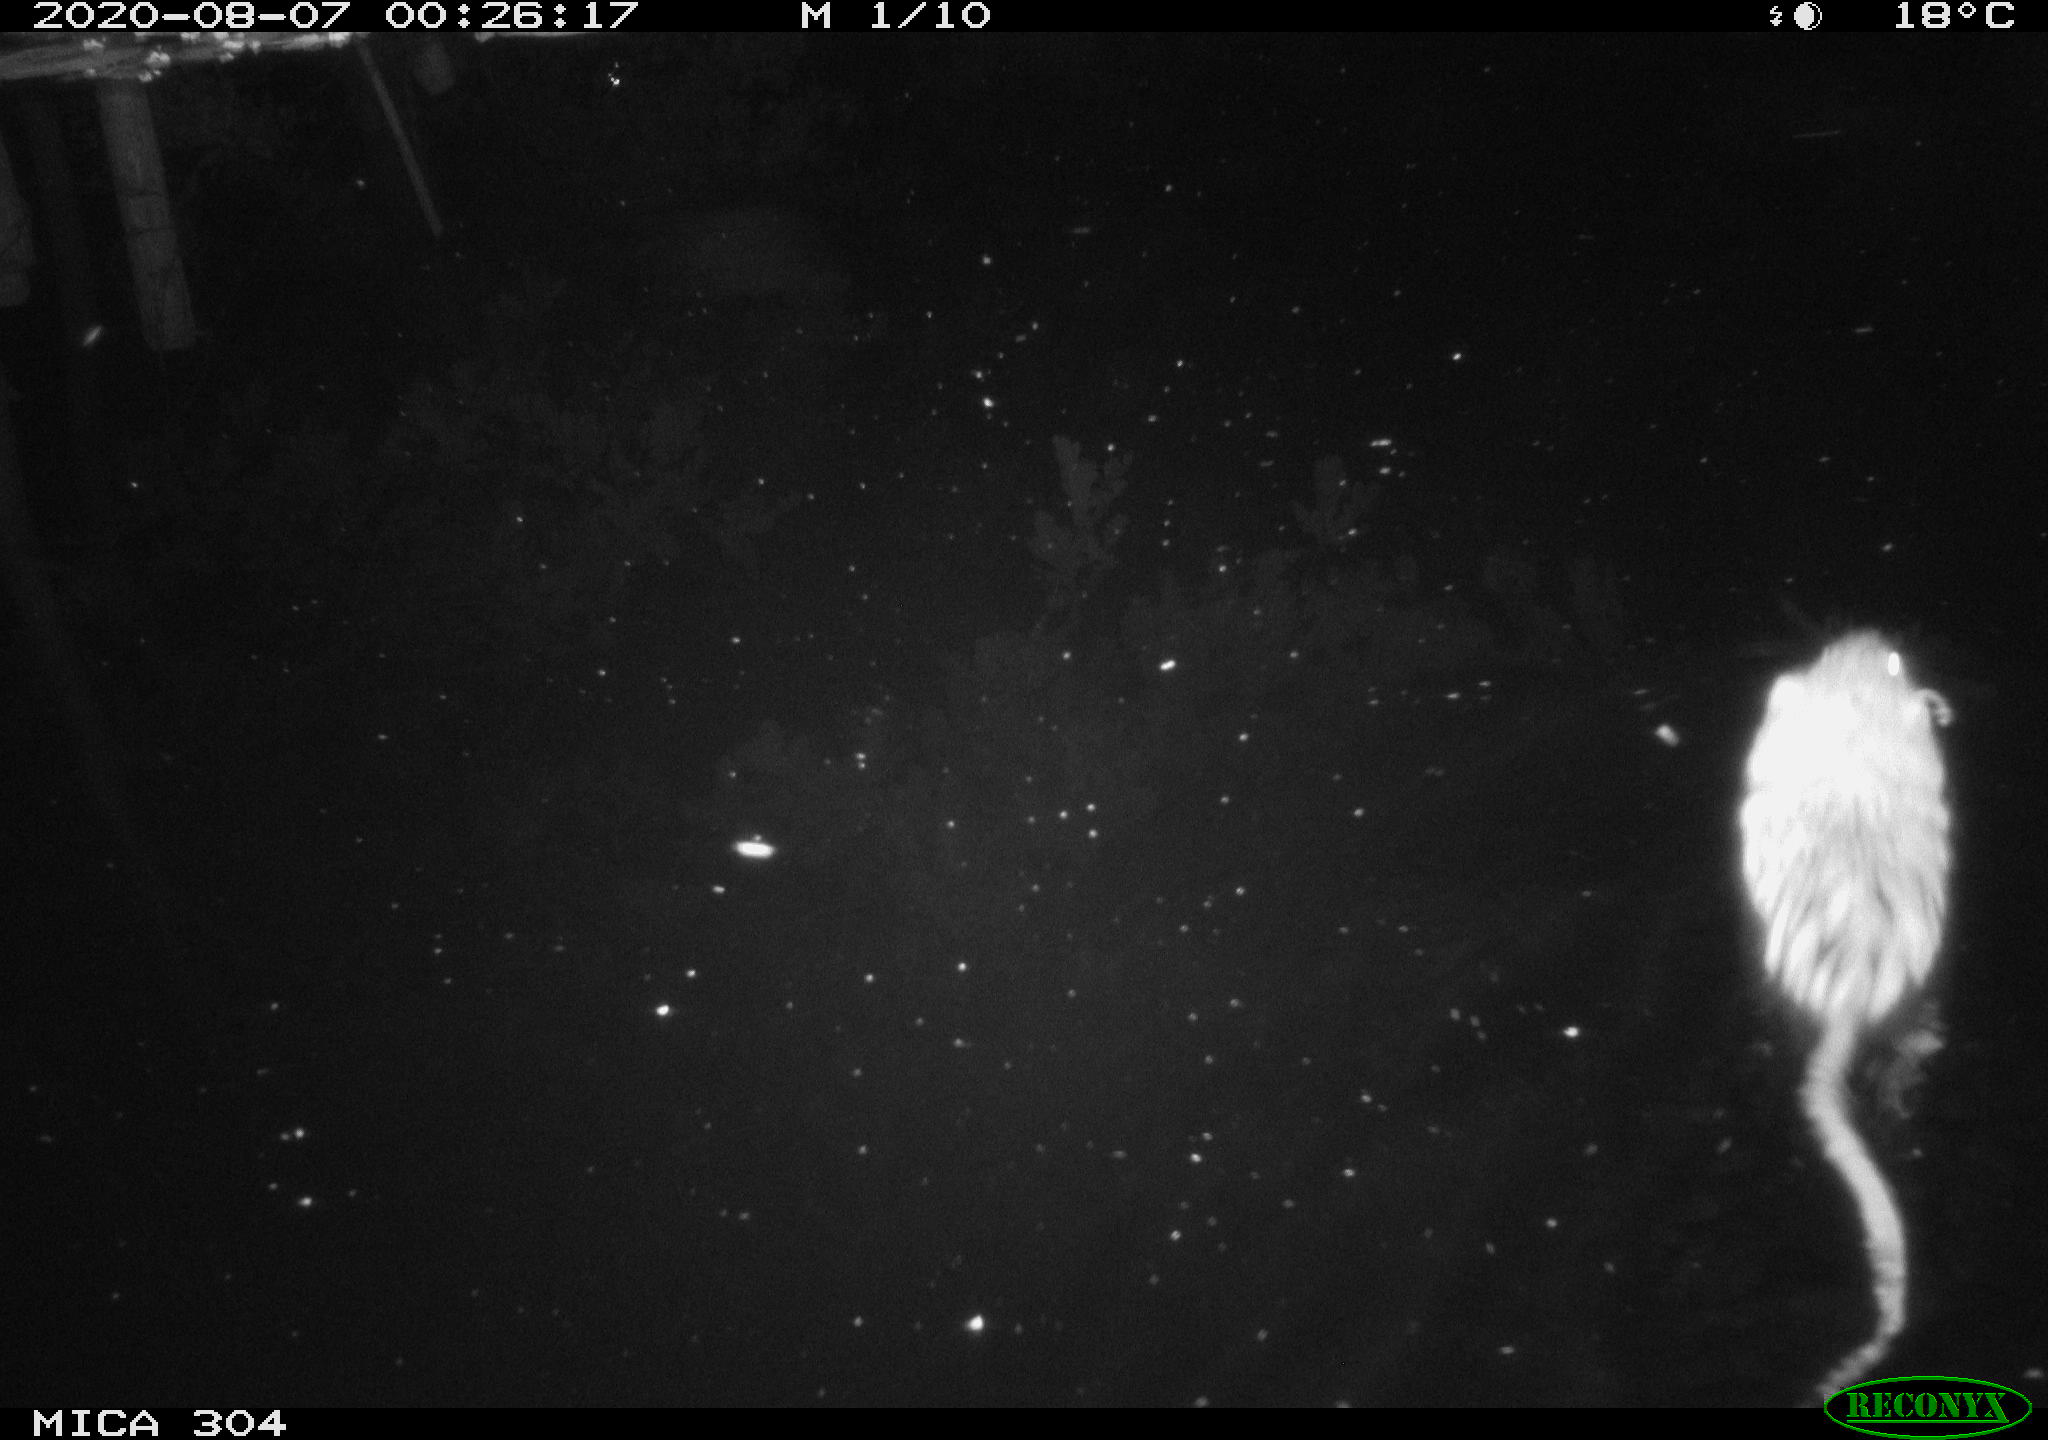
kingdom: Animalia
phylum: Chordata
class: Mammalia
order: Rodentia
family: Cricetidae
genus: Ondatra
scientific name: Ondatra zibethicus
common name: Muskrat
